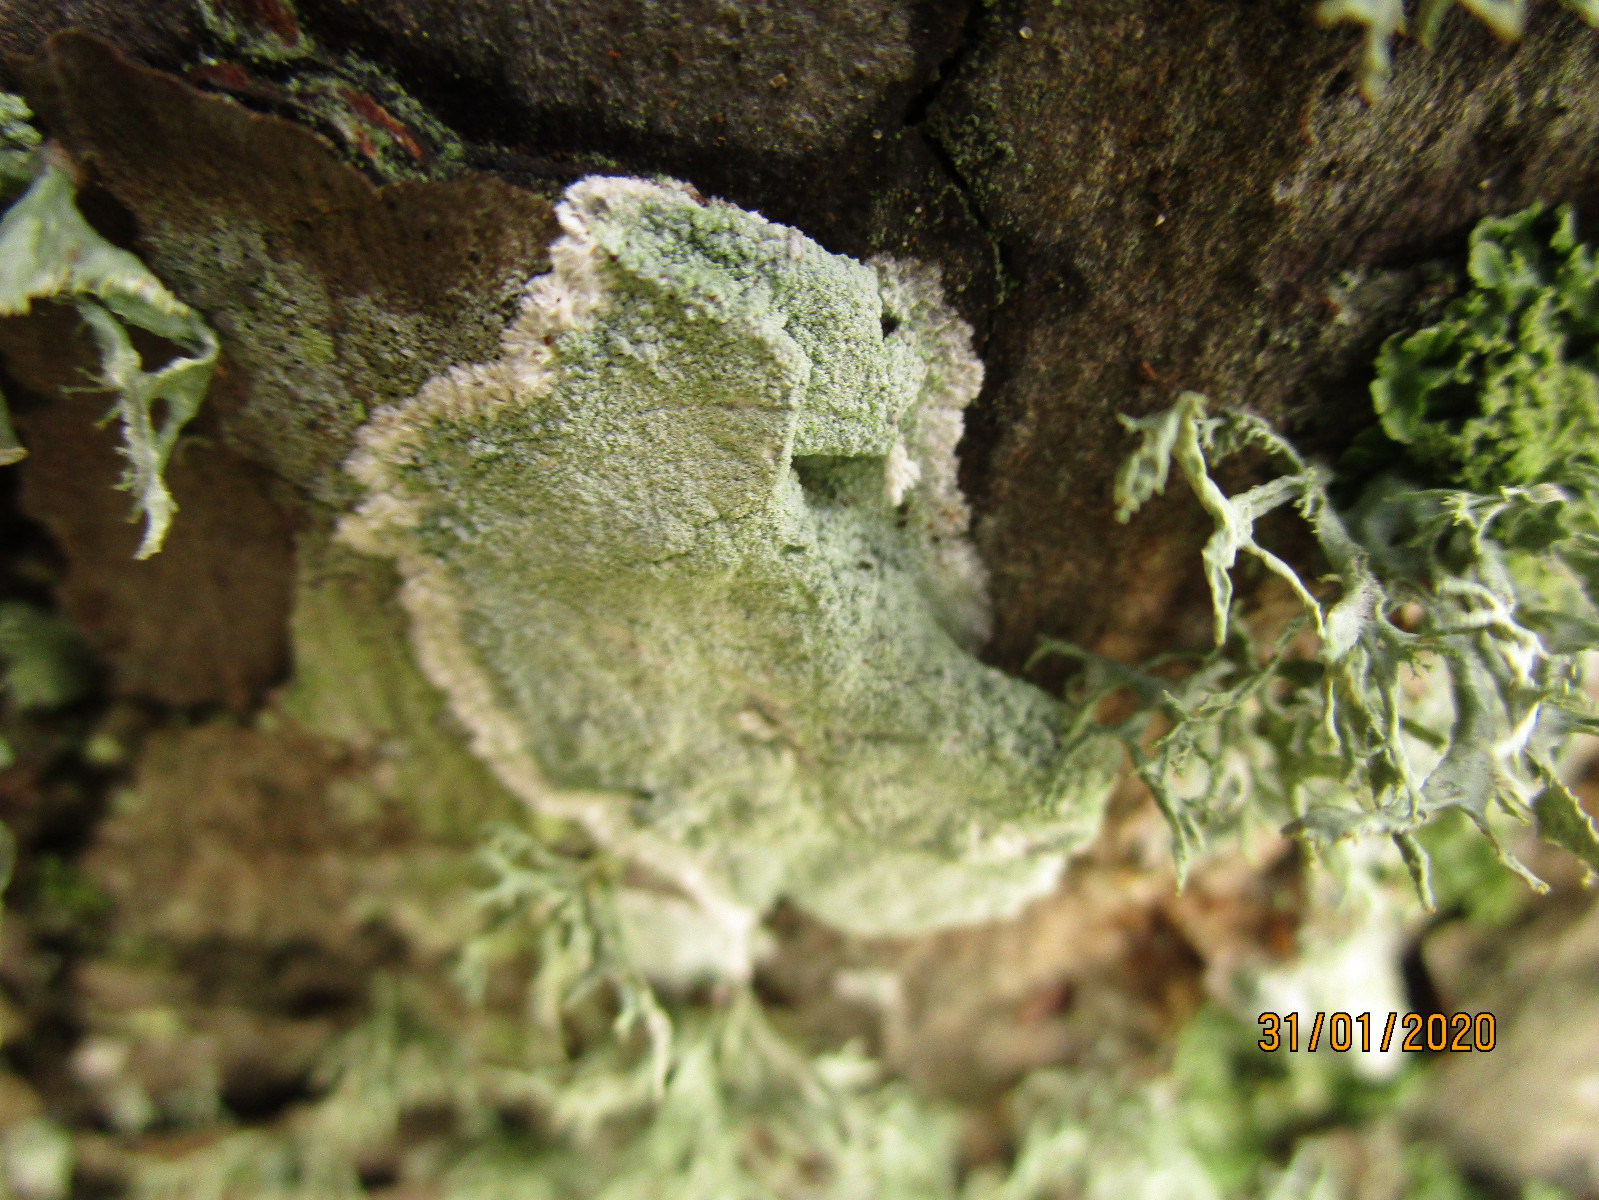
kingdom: Fungi
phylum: Ascomycota
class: Lecanoromycetes
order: Lecanorales
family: Haematommataceae
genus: Haematomma
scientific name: Haematomma ochroleucum
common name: gul trådkantlav
